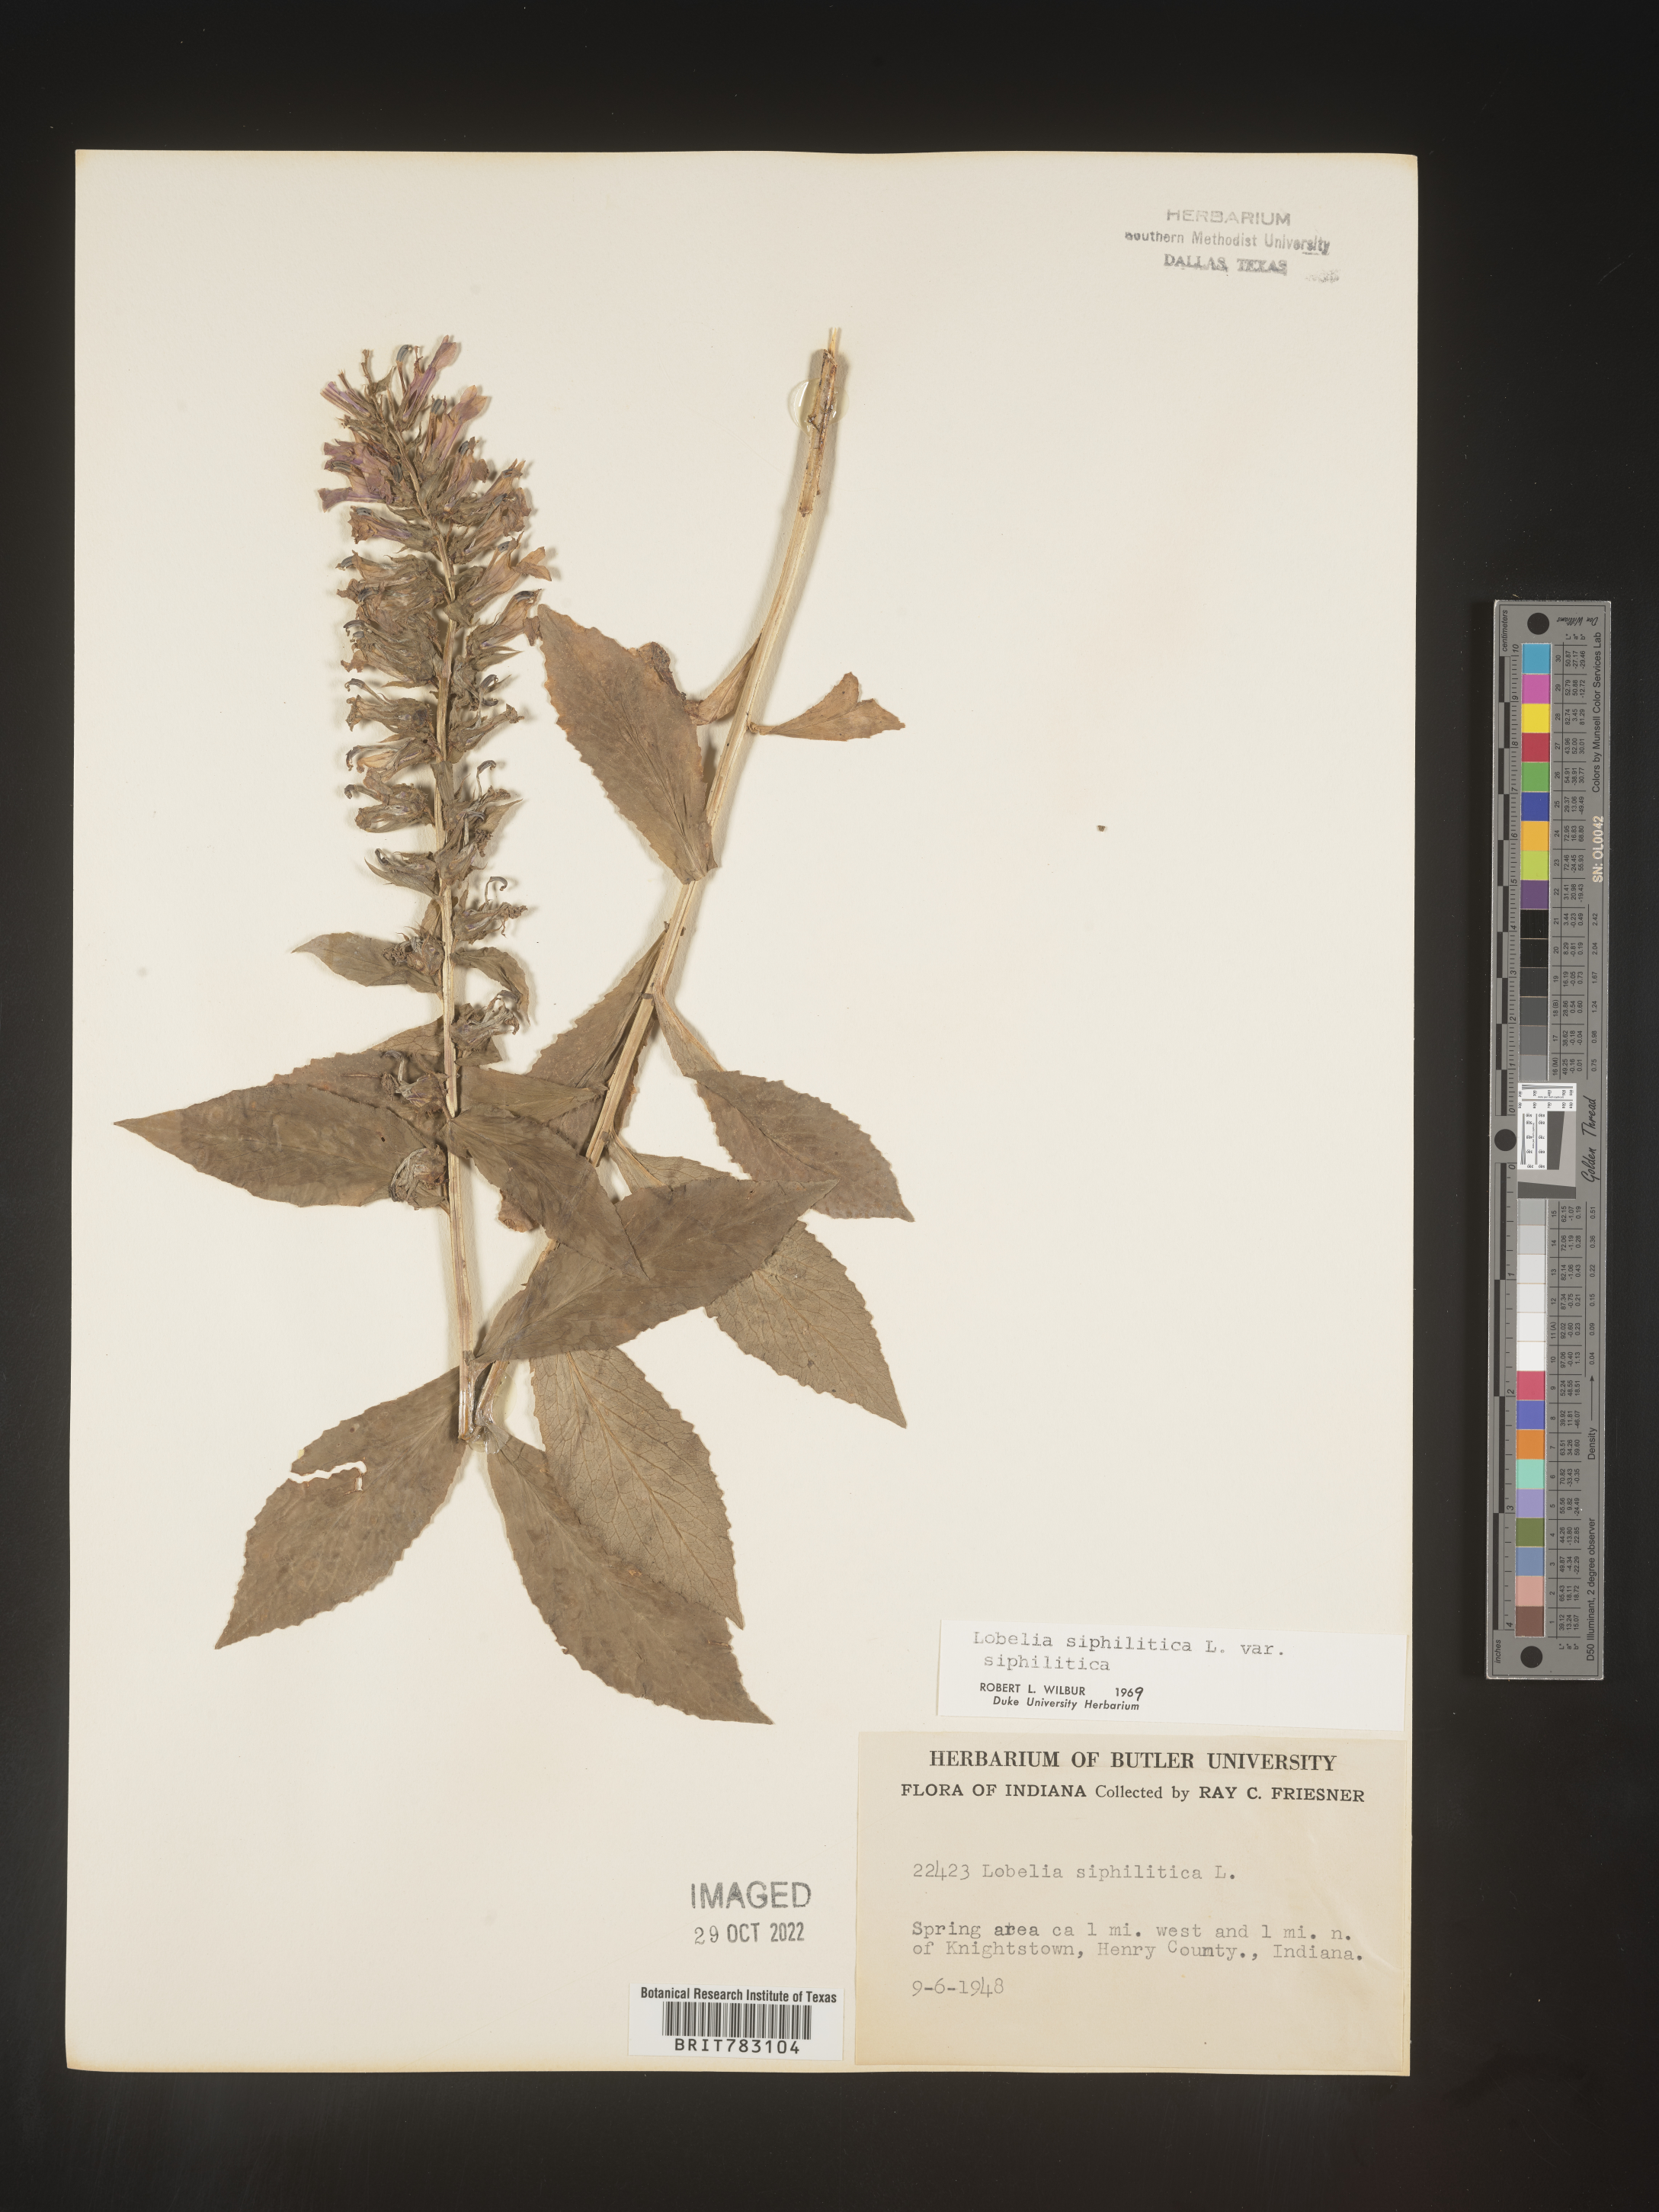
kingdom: Plantae
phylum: Tracheophyta
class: Magnoliopsida
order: Asterales
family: Campanulaceae
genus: Lobelia
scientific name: Lobelia siphilitica
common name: Great lobelia
